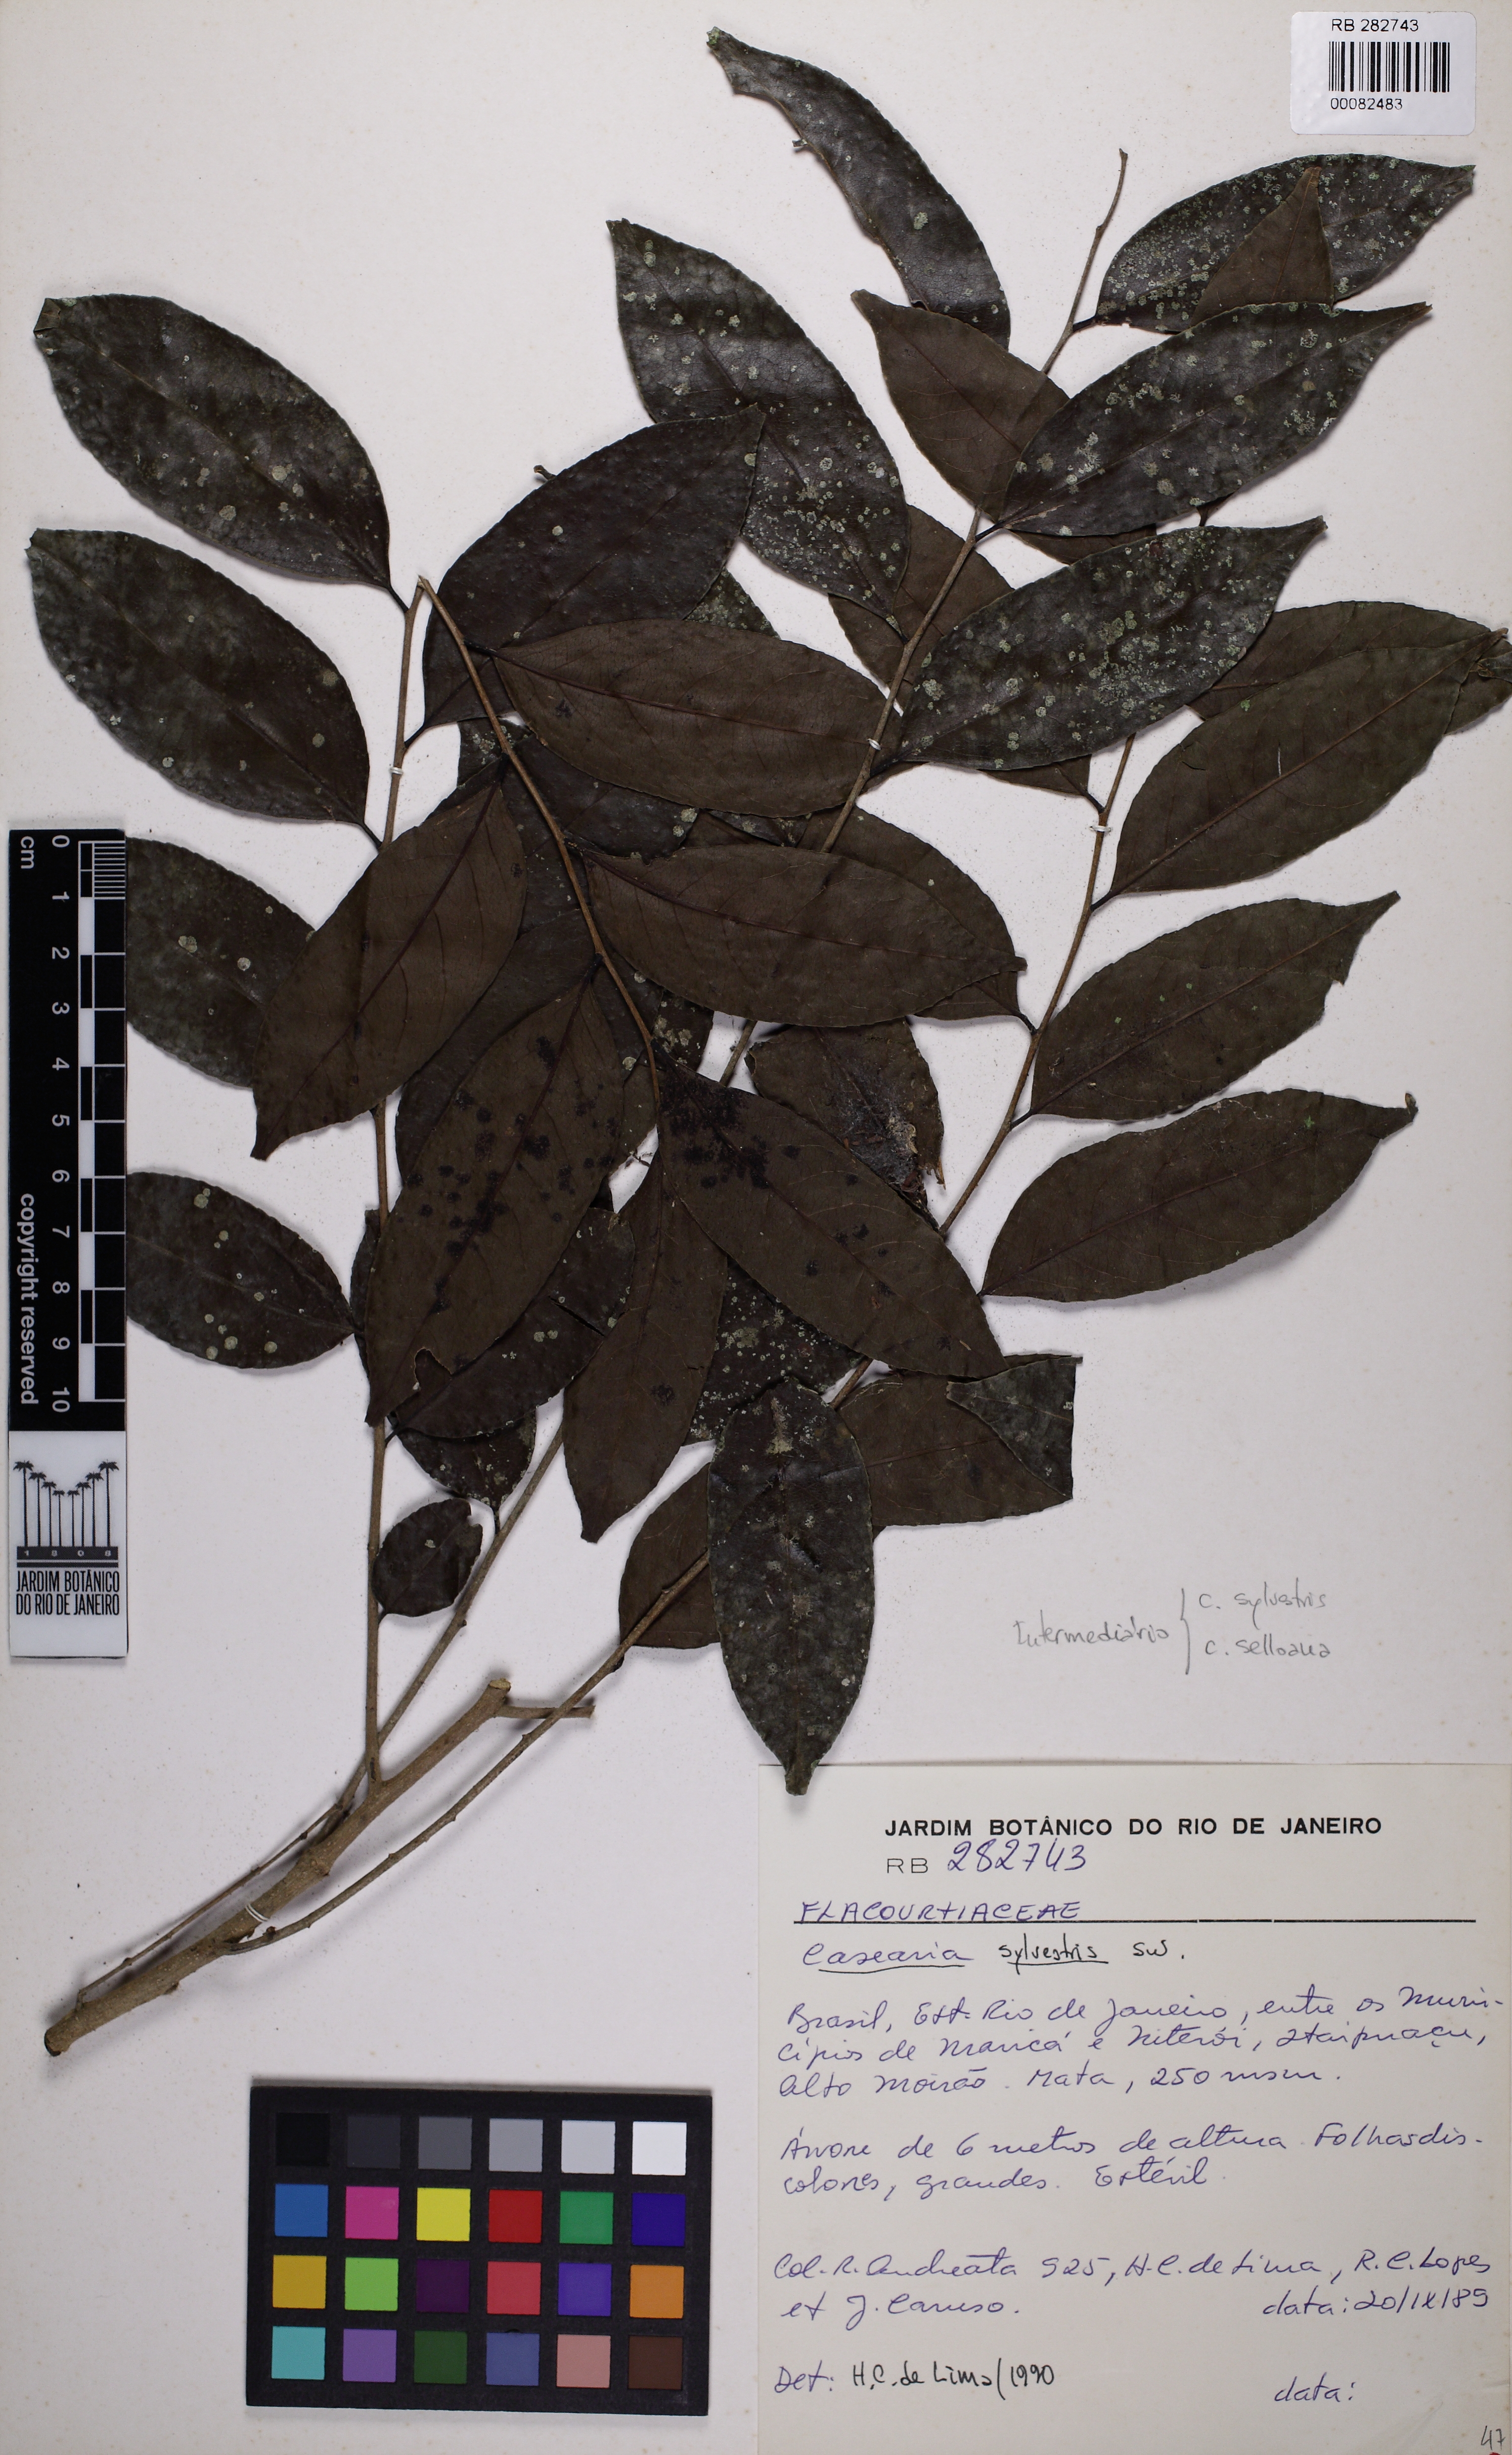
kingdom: Plantae
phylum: Tracheophyta
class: Magnoliopsida
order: Malpighiales
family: Salicaceae
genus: Casearia
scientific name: Casearia sylvestris
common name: Wild sage
